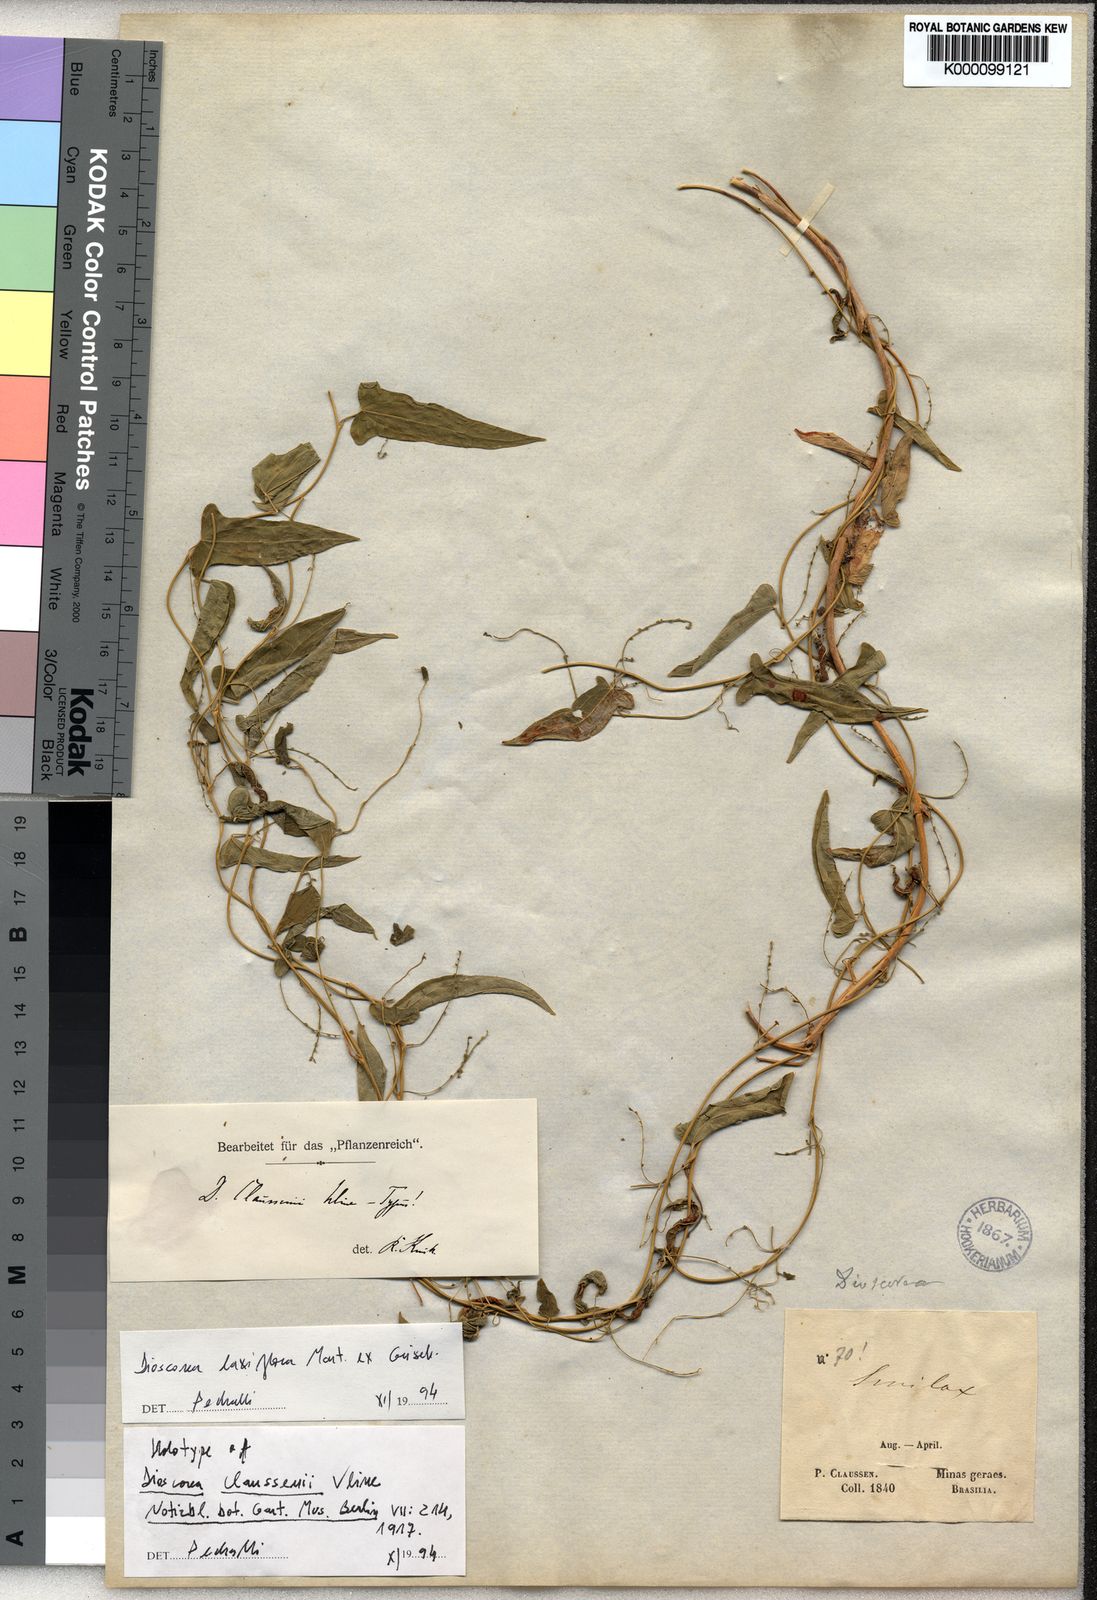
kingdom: Plantae
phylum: Tracheophyta
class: Liliopsida
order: Dioscoreales
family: Dioscoreaceae
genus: Dioscorea
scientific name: Dioscorea
